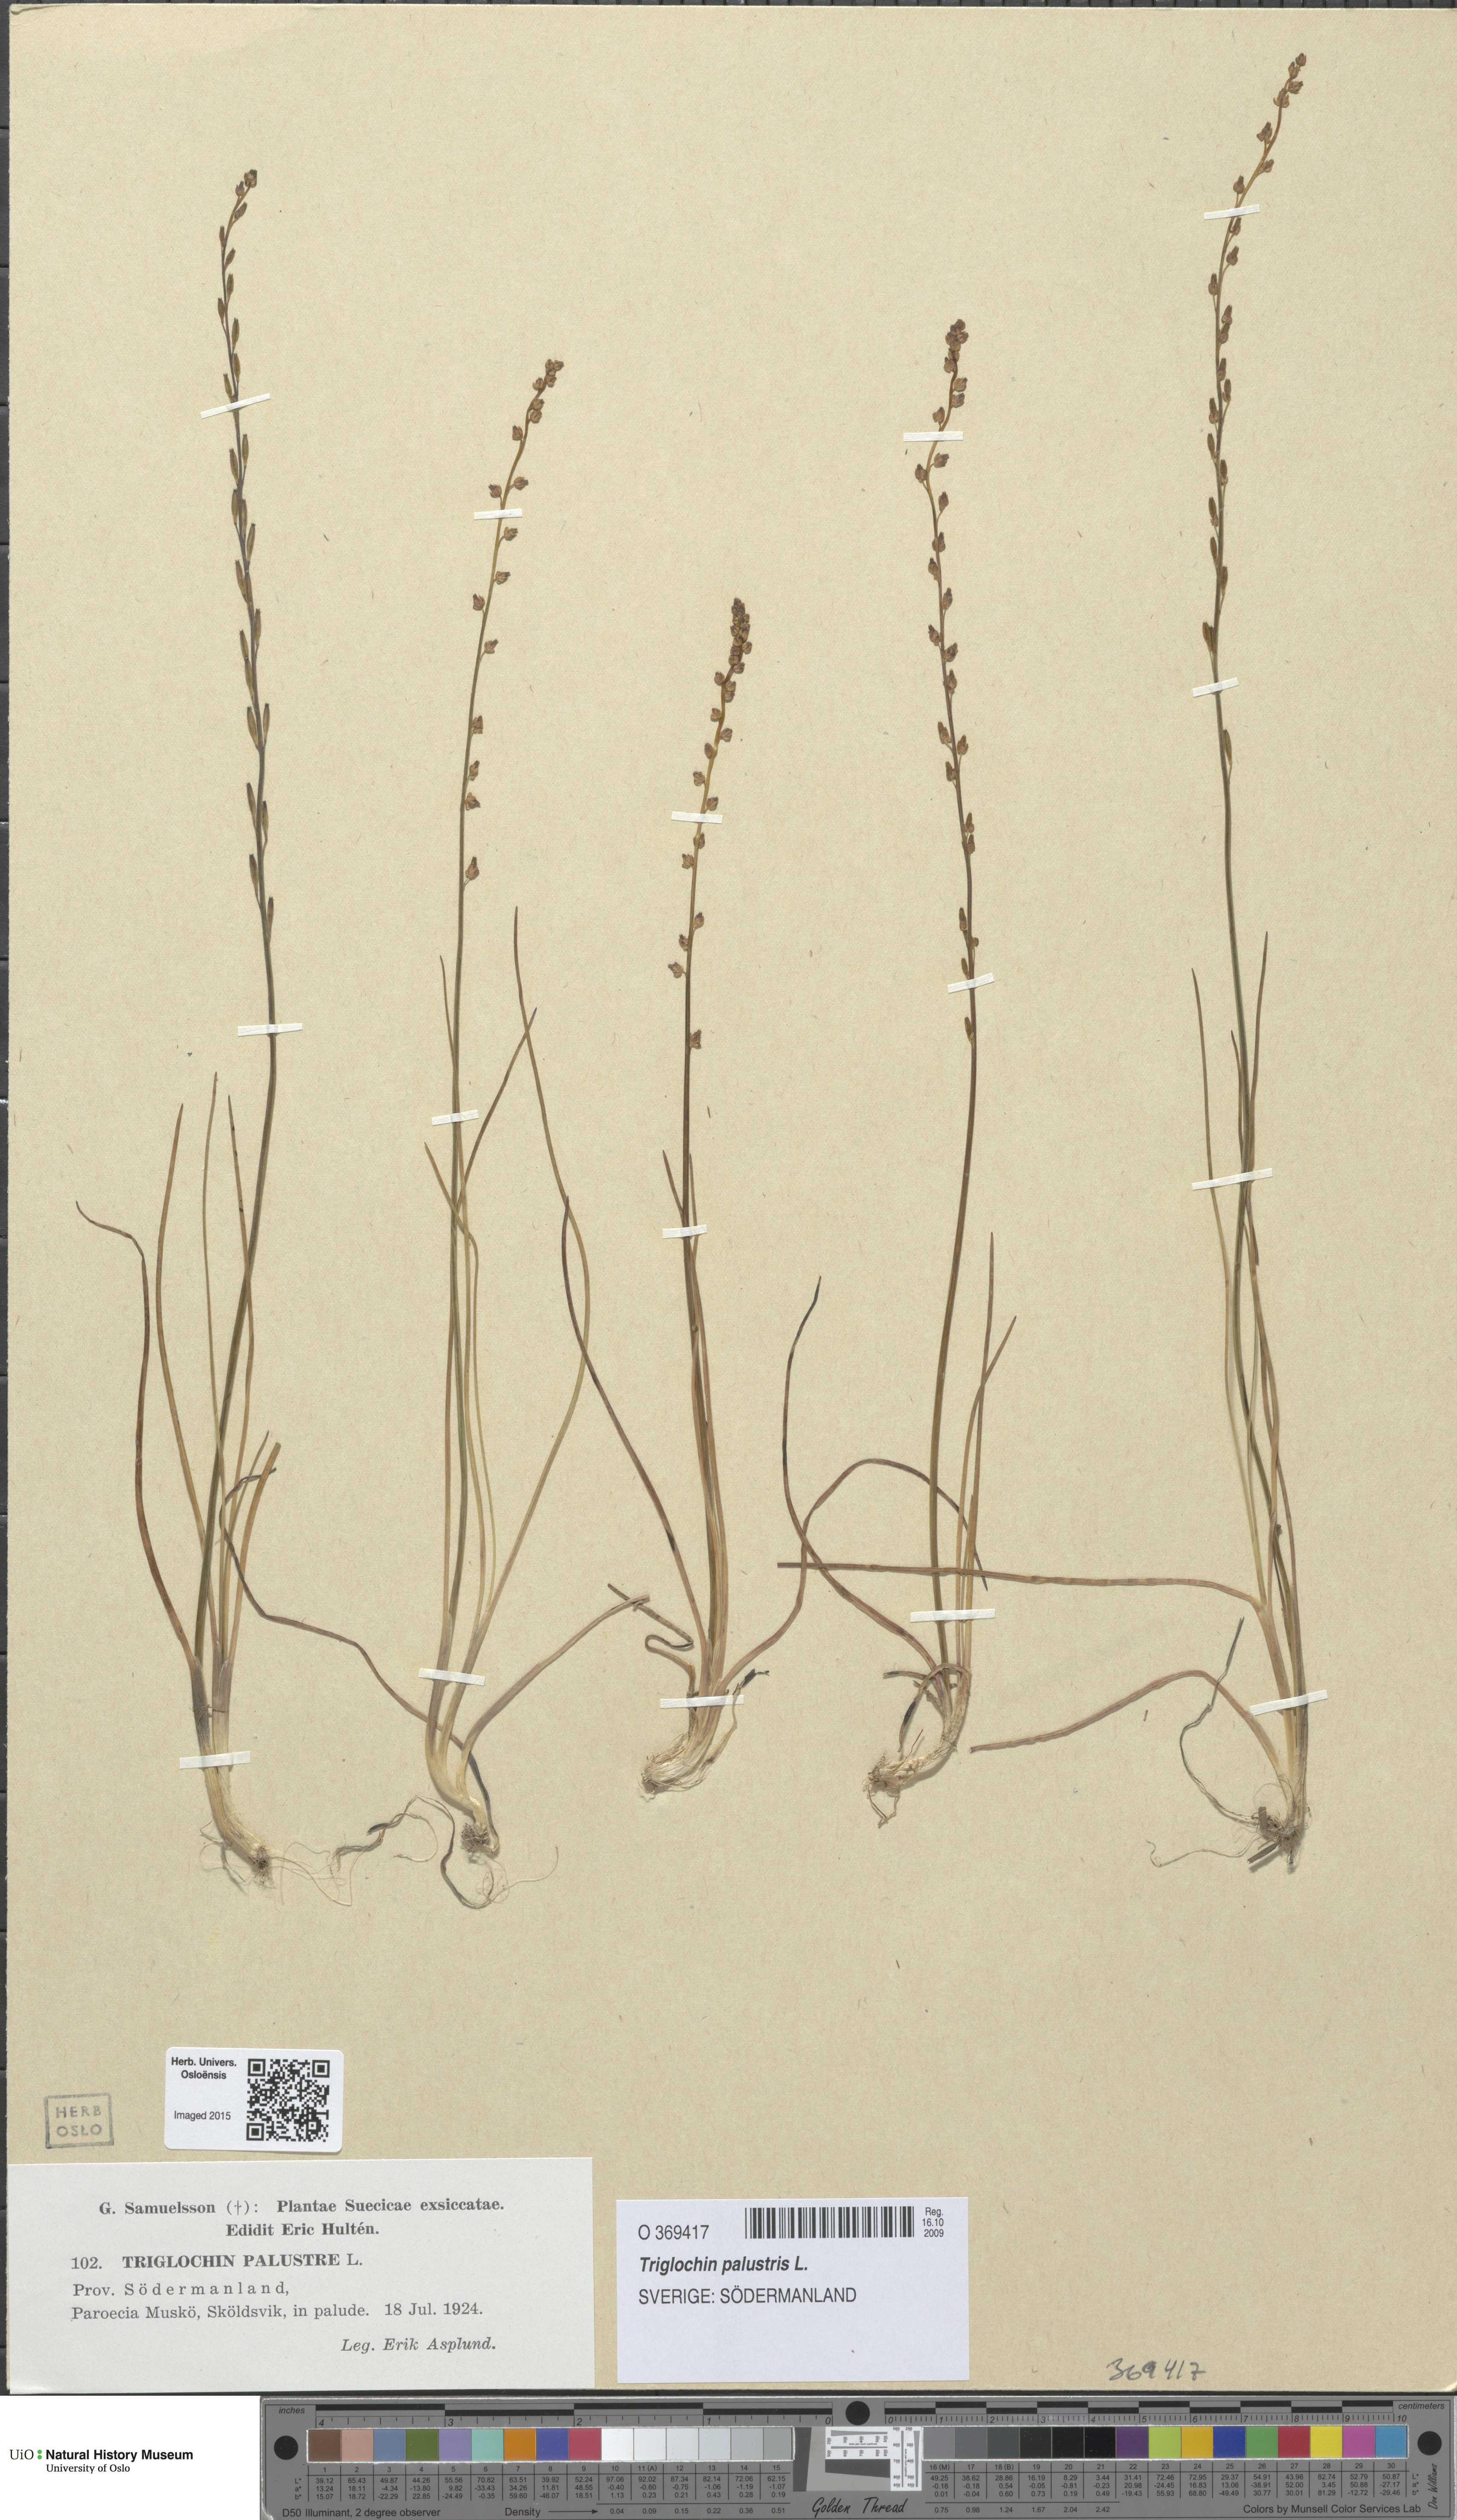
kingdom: Plantae
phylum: Tracheophyta
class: Liliopsida
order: Alismatales
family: Juncaginaceae
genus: Triglochin
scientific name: Triglochin palustris
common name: Marsh arrowgrass
